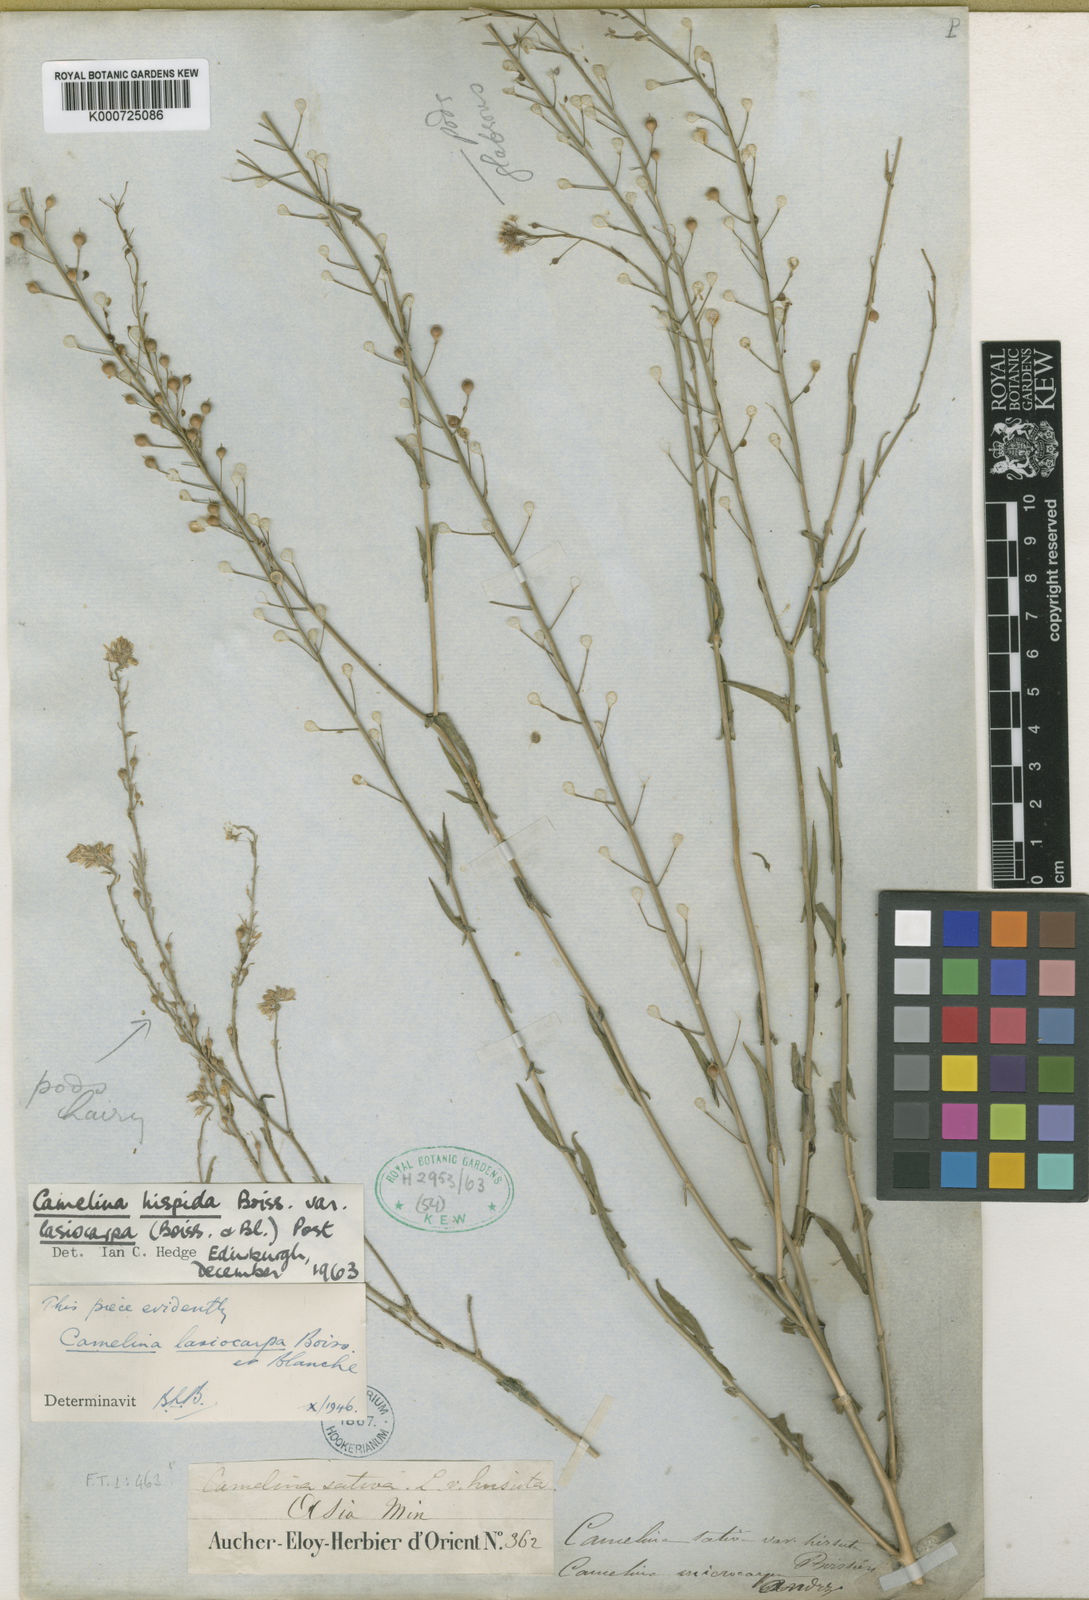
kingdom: Plantae
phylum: Tracheophyta
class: Magnoliopsida
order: Brassicales
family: Brassicaceae
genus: Camelina
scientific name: Camelina hispida
